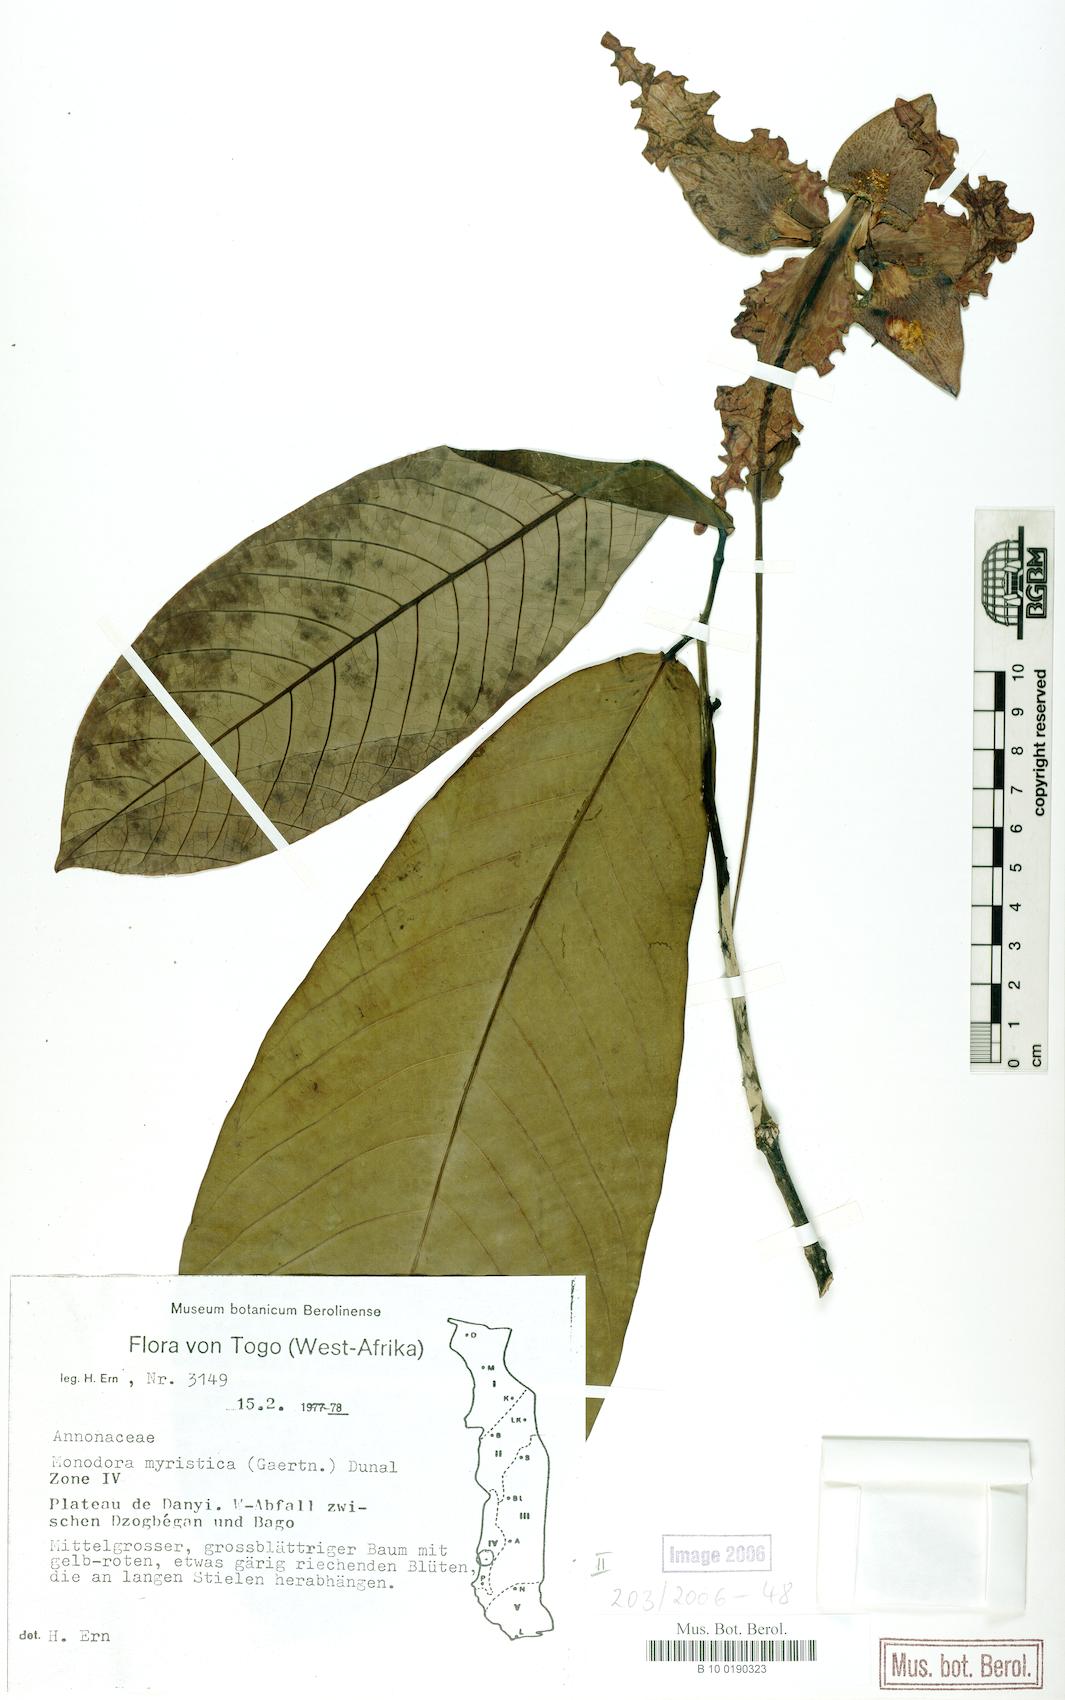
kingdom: Plantae
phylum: Tracheophyta
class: Magnoliopsida
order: Magnoliales
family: Annonaceae
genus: Monodora
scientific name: Monodora myristica
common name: African nutmeg
